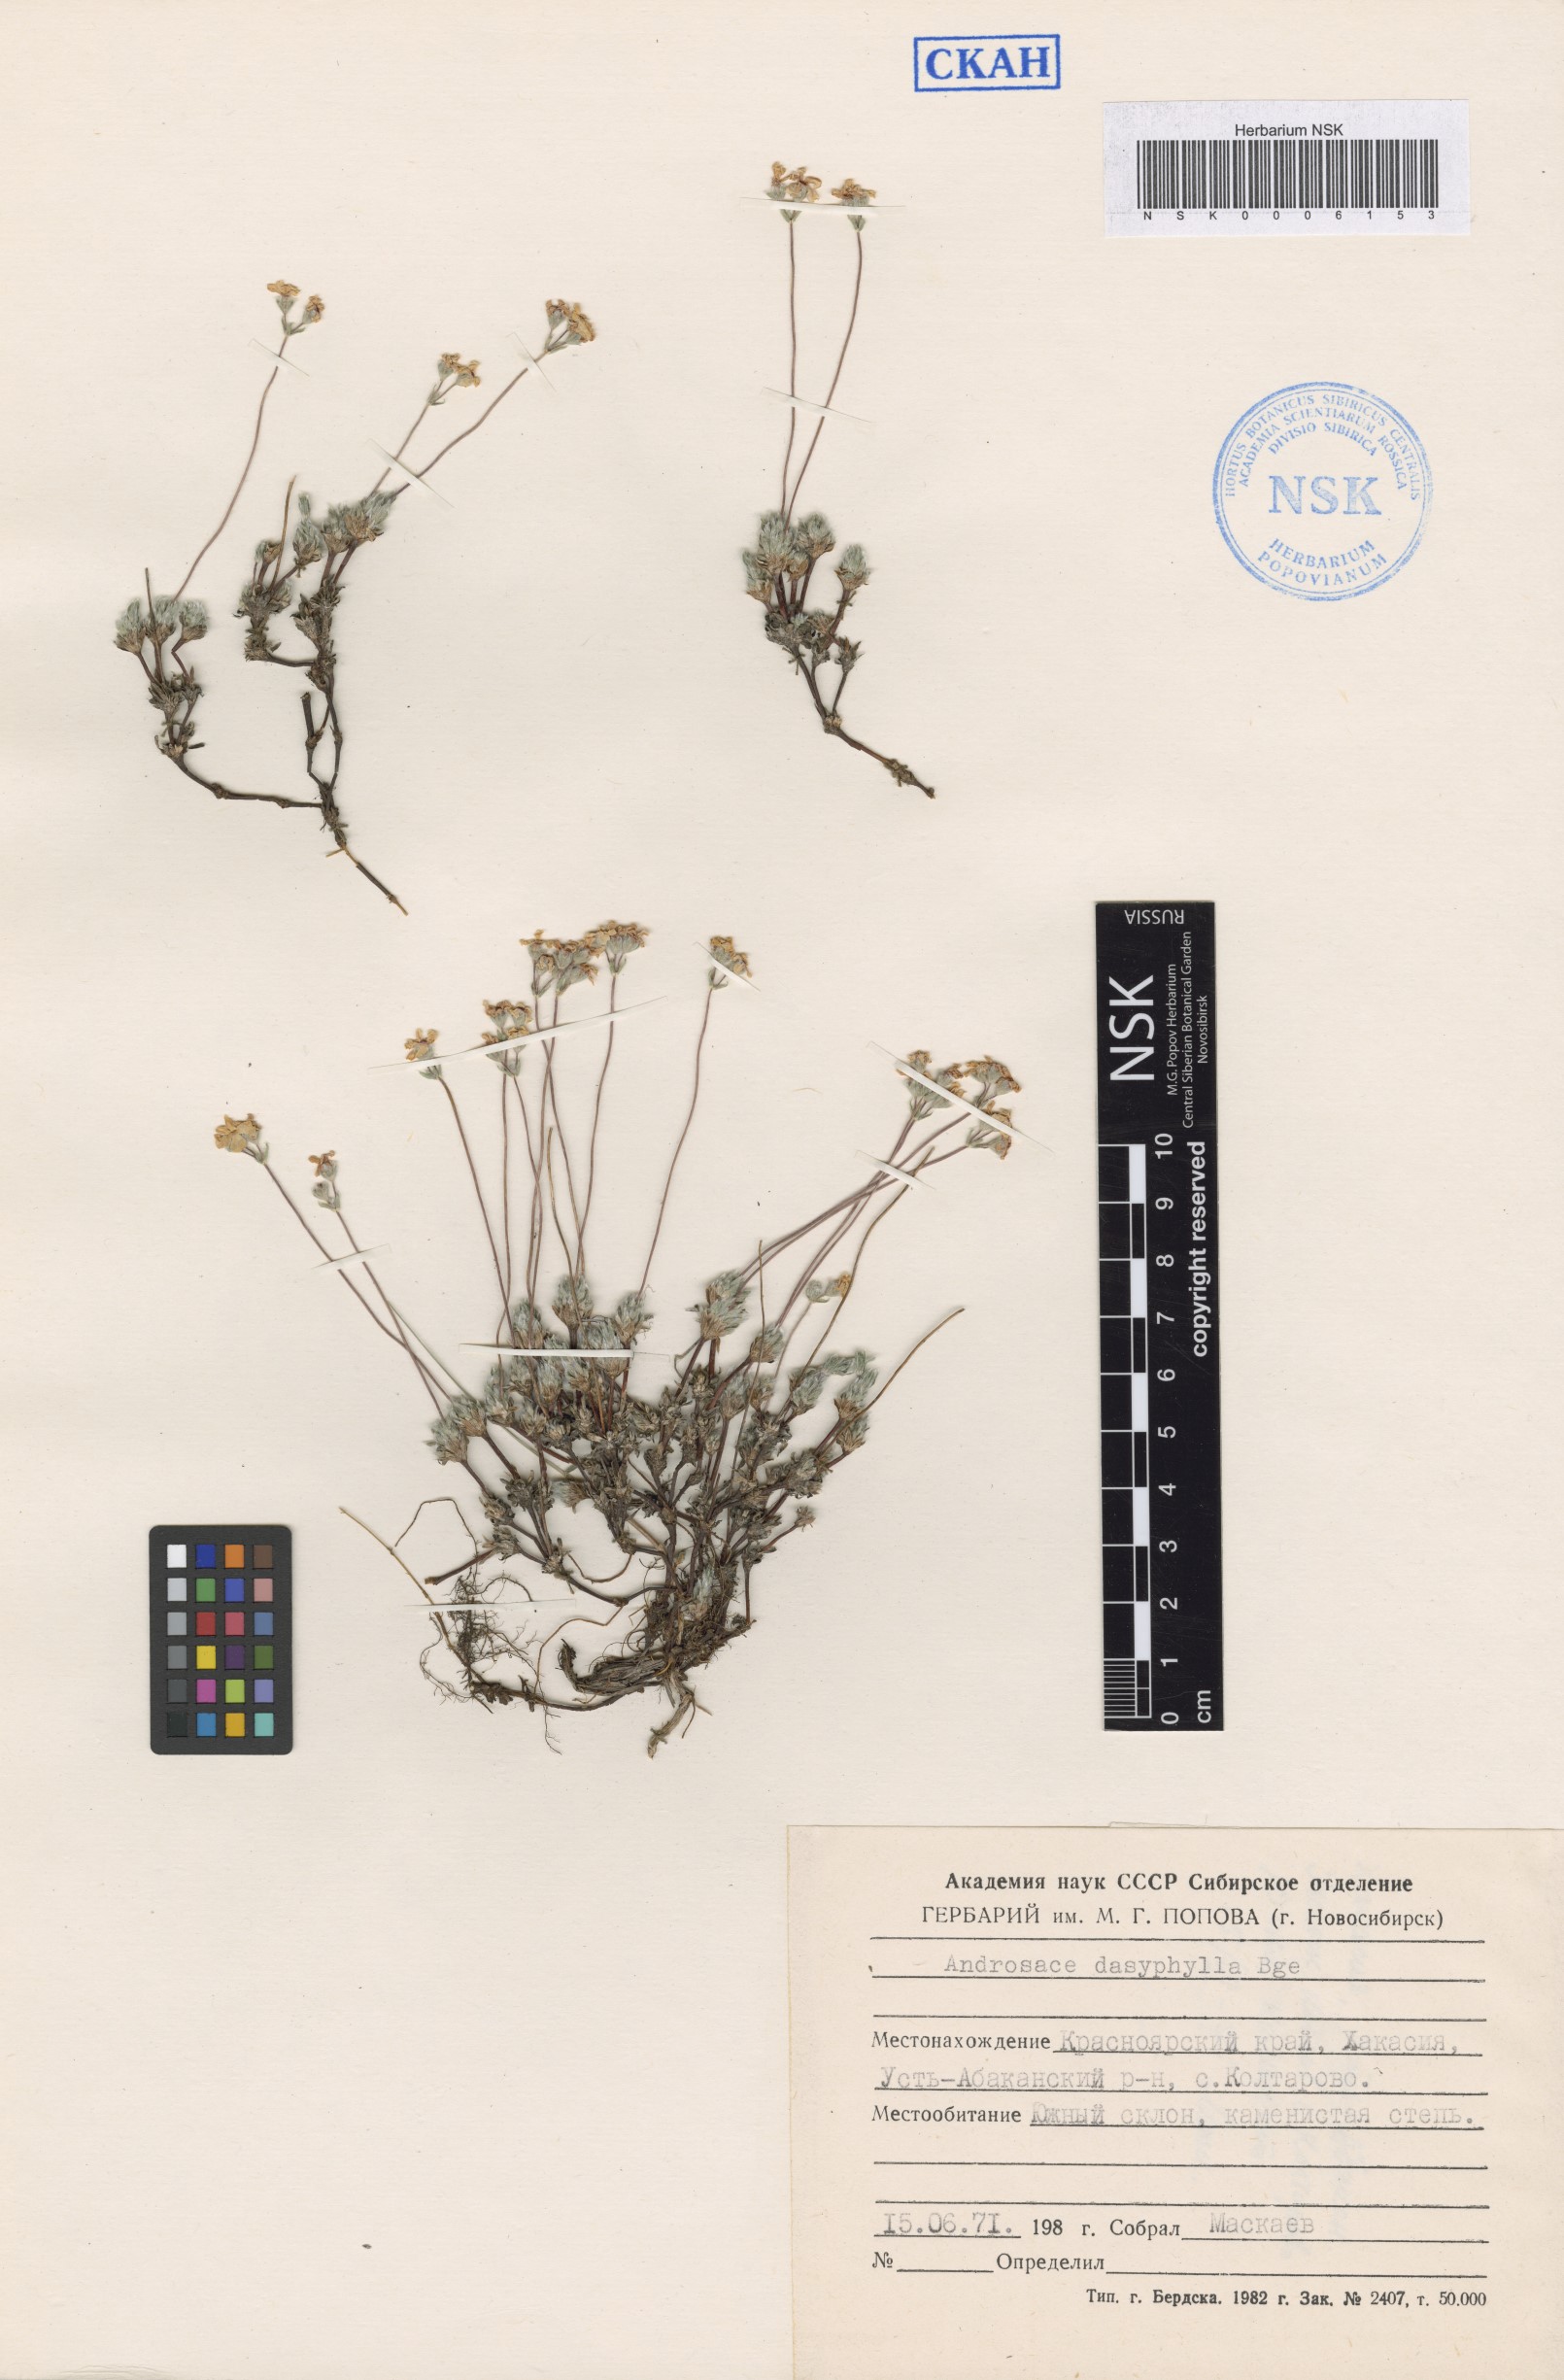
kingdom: Plantae
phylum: Tracheophyta
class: Magnoliopsida
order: Ericales
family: Primulaceae
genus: Androsace
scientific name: Androsace dasyphylla
